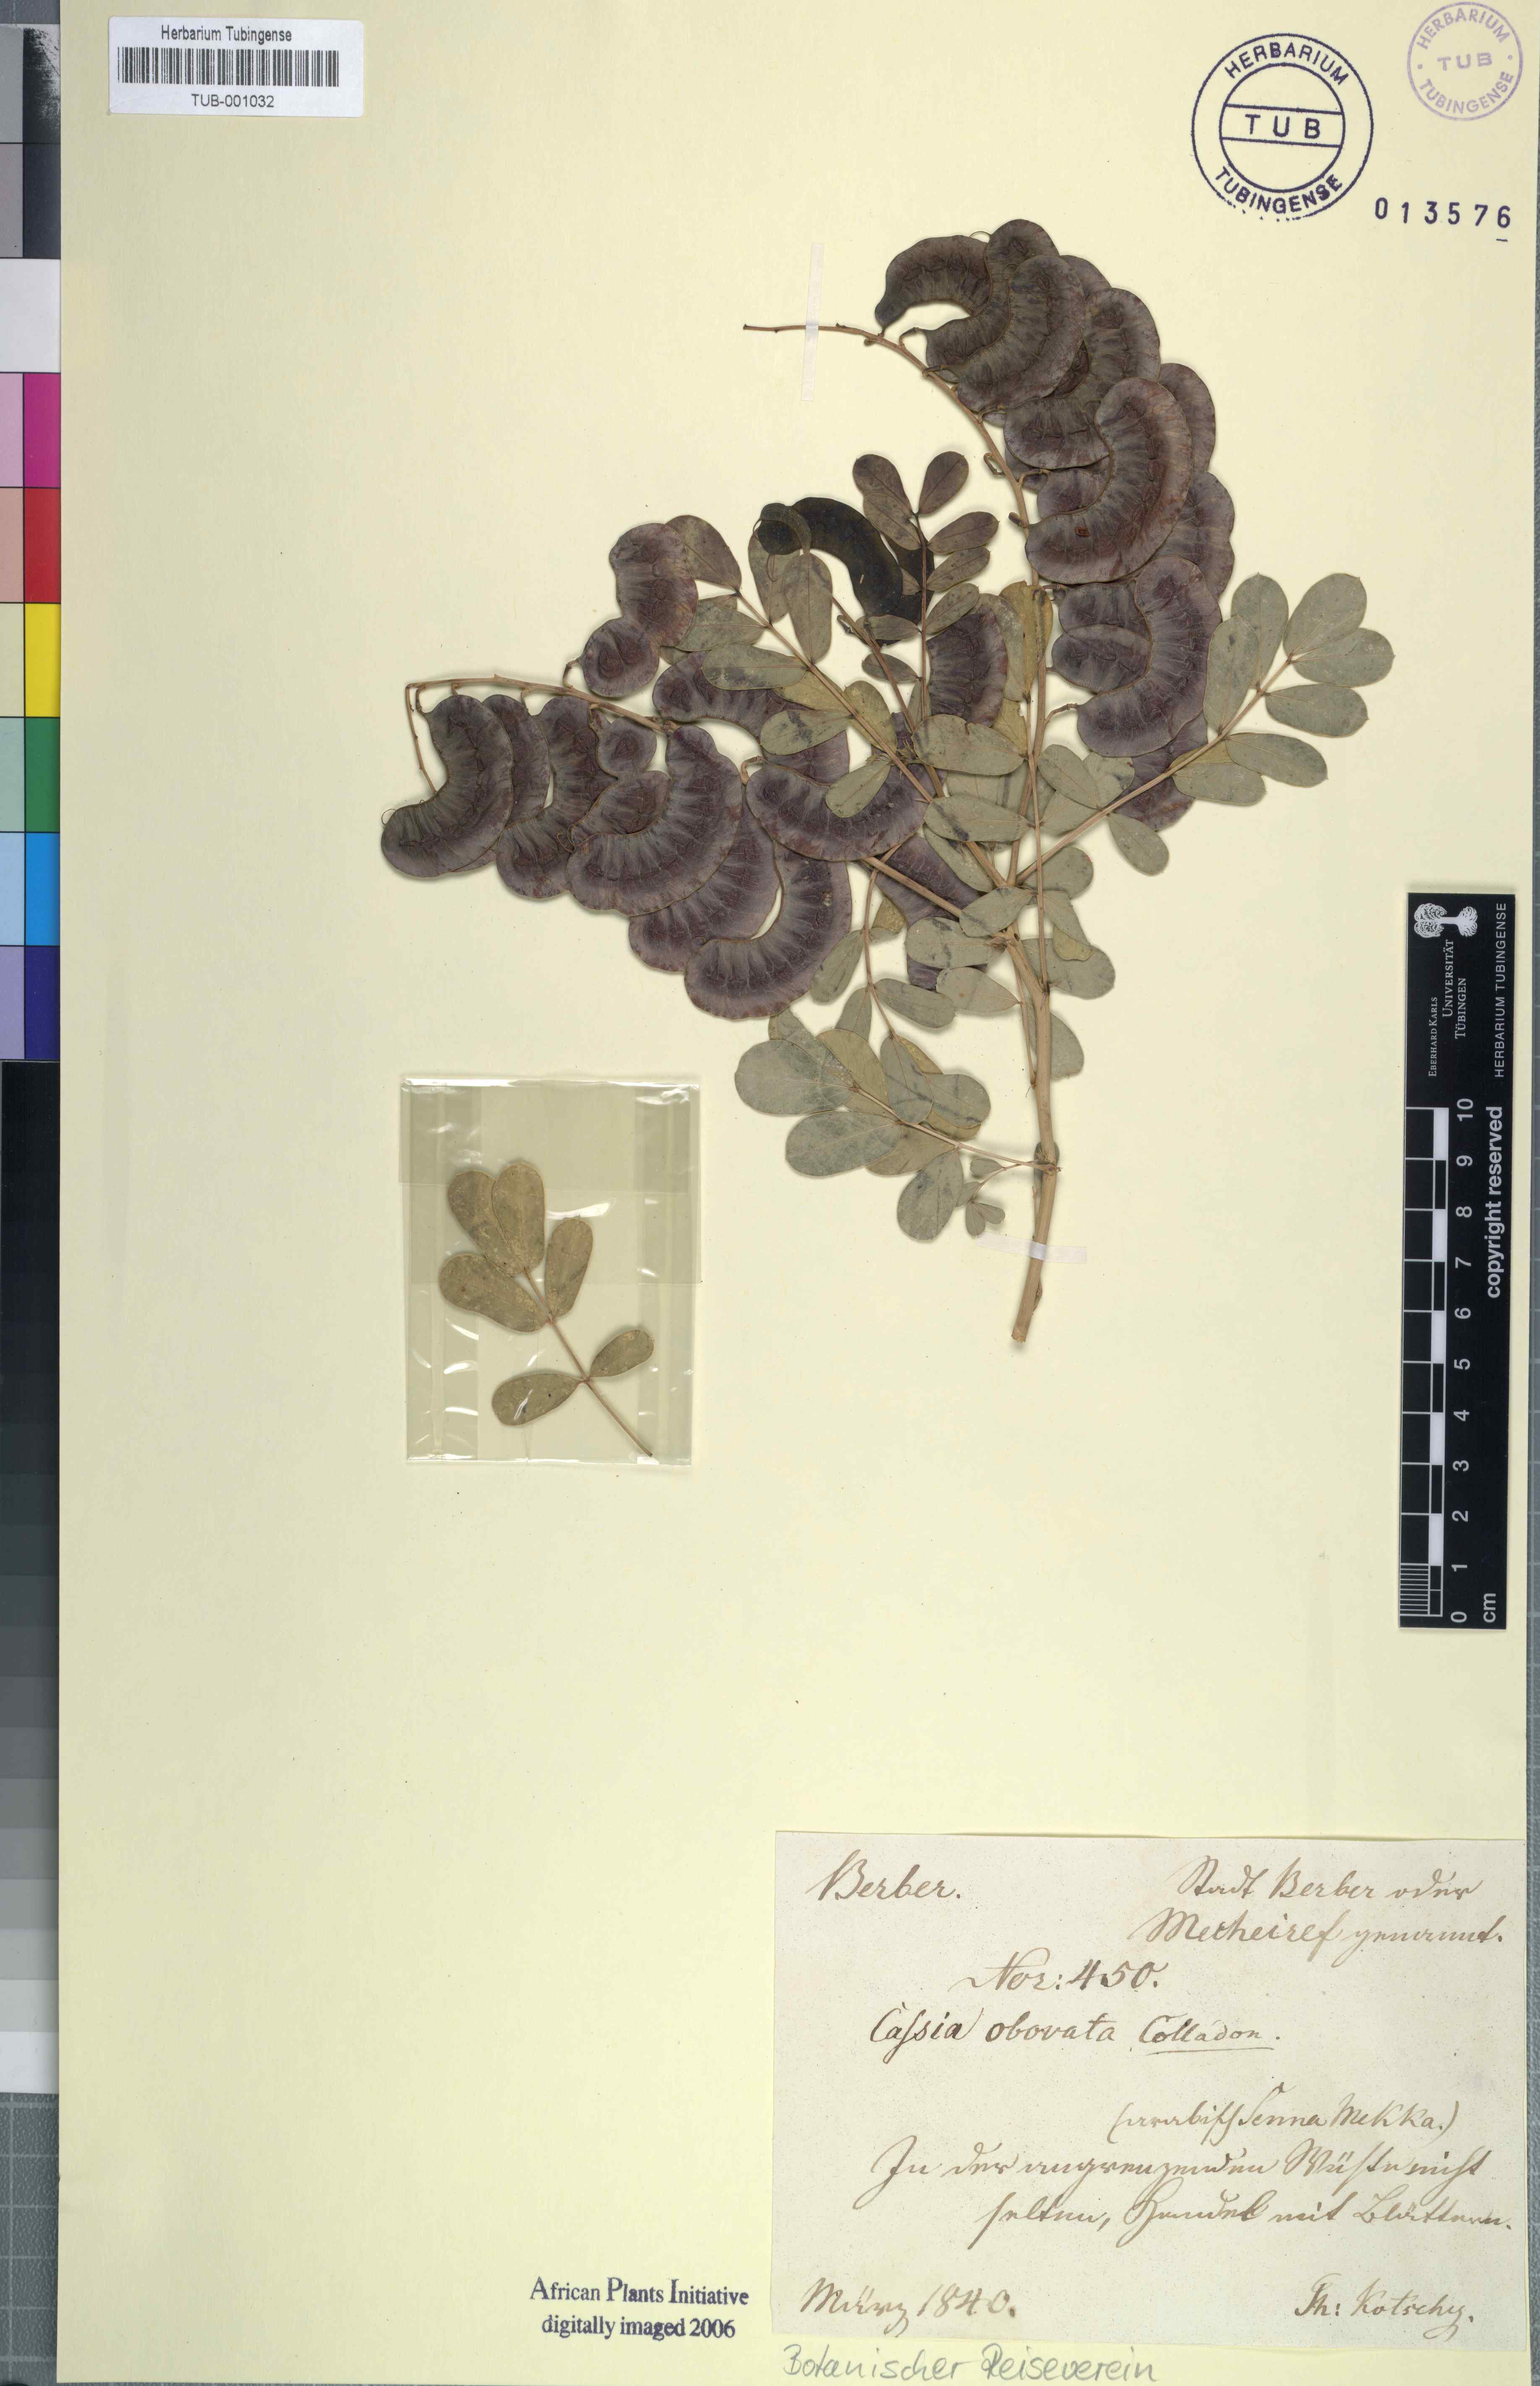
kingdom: Plantae
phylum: Tracheophyta
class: Magnoliopsida
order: Fabales
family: Fabaceae
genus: Senna
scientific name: Senna italica
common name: Port royal senna
